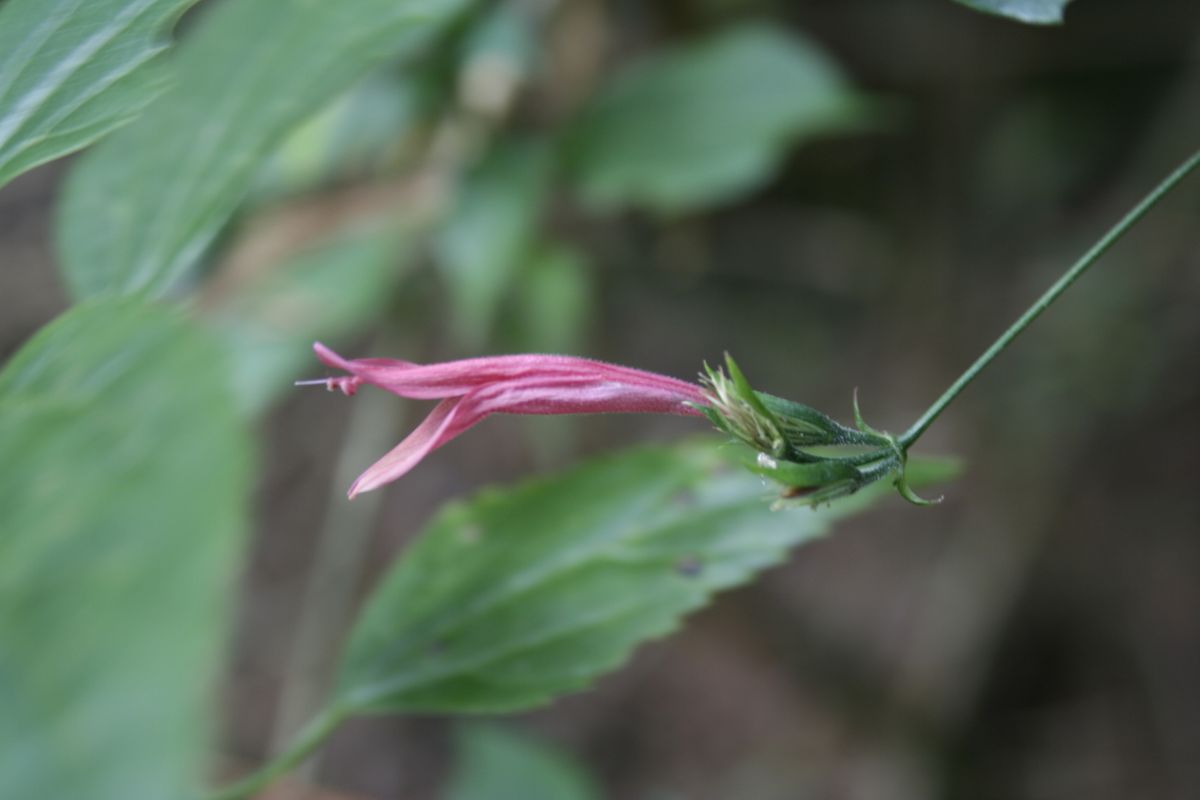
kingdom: Plantae
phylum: Tracheophyta
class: Magnoliopsida
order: Lamiales
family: Acanthaceae
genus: Dicliptera
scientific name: Dicliptera sciadephora
